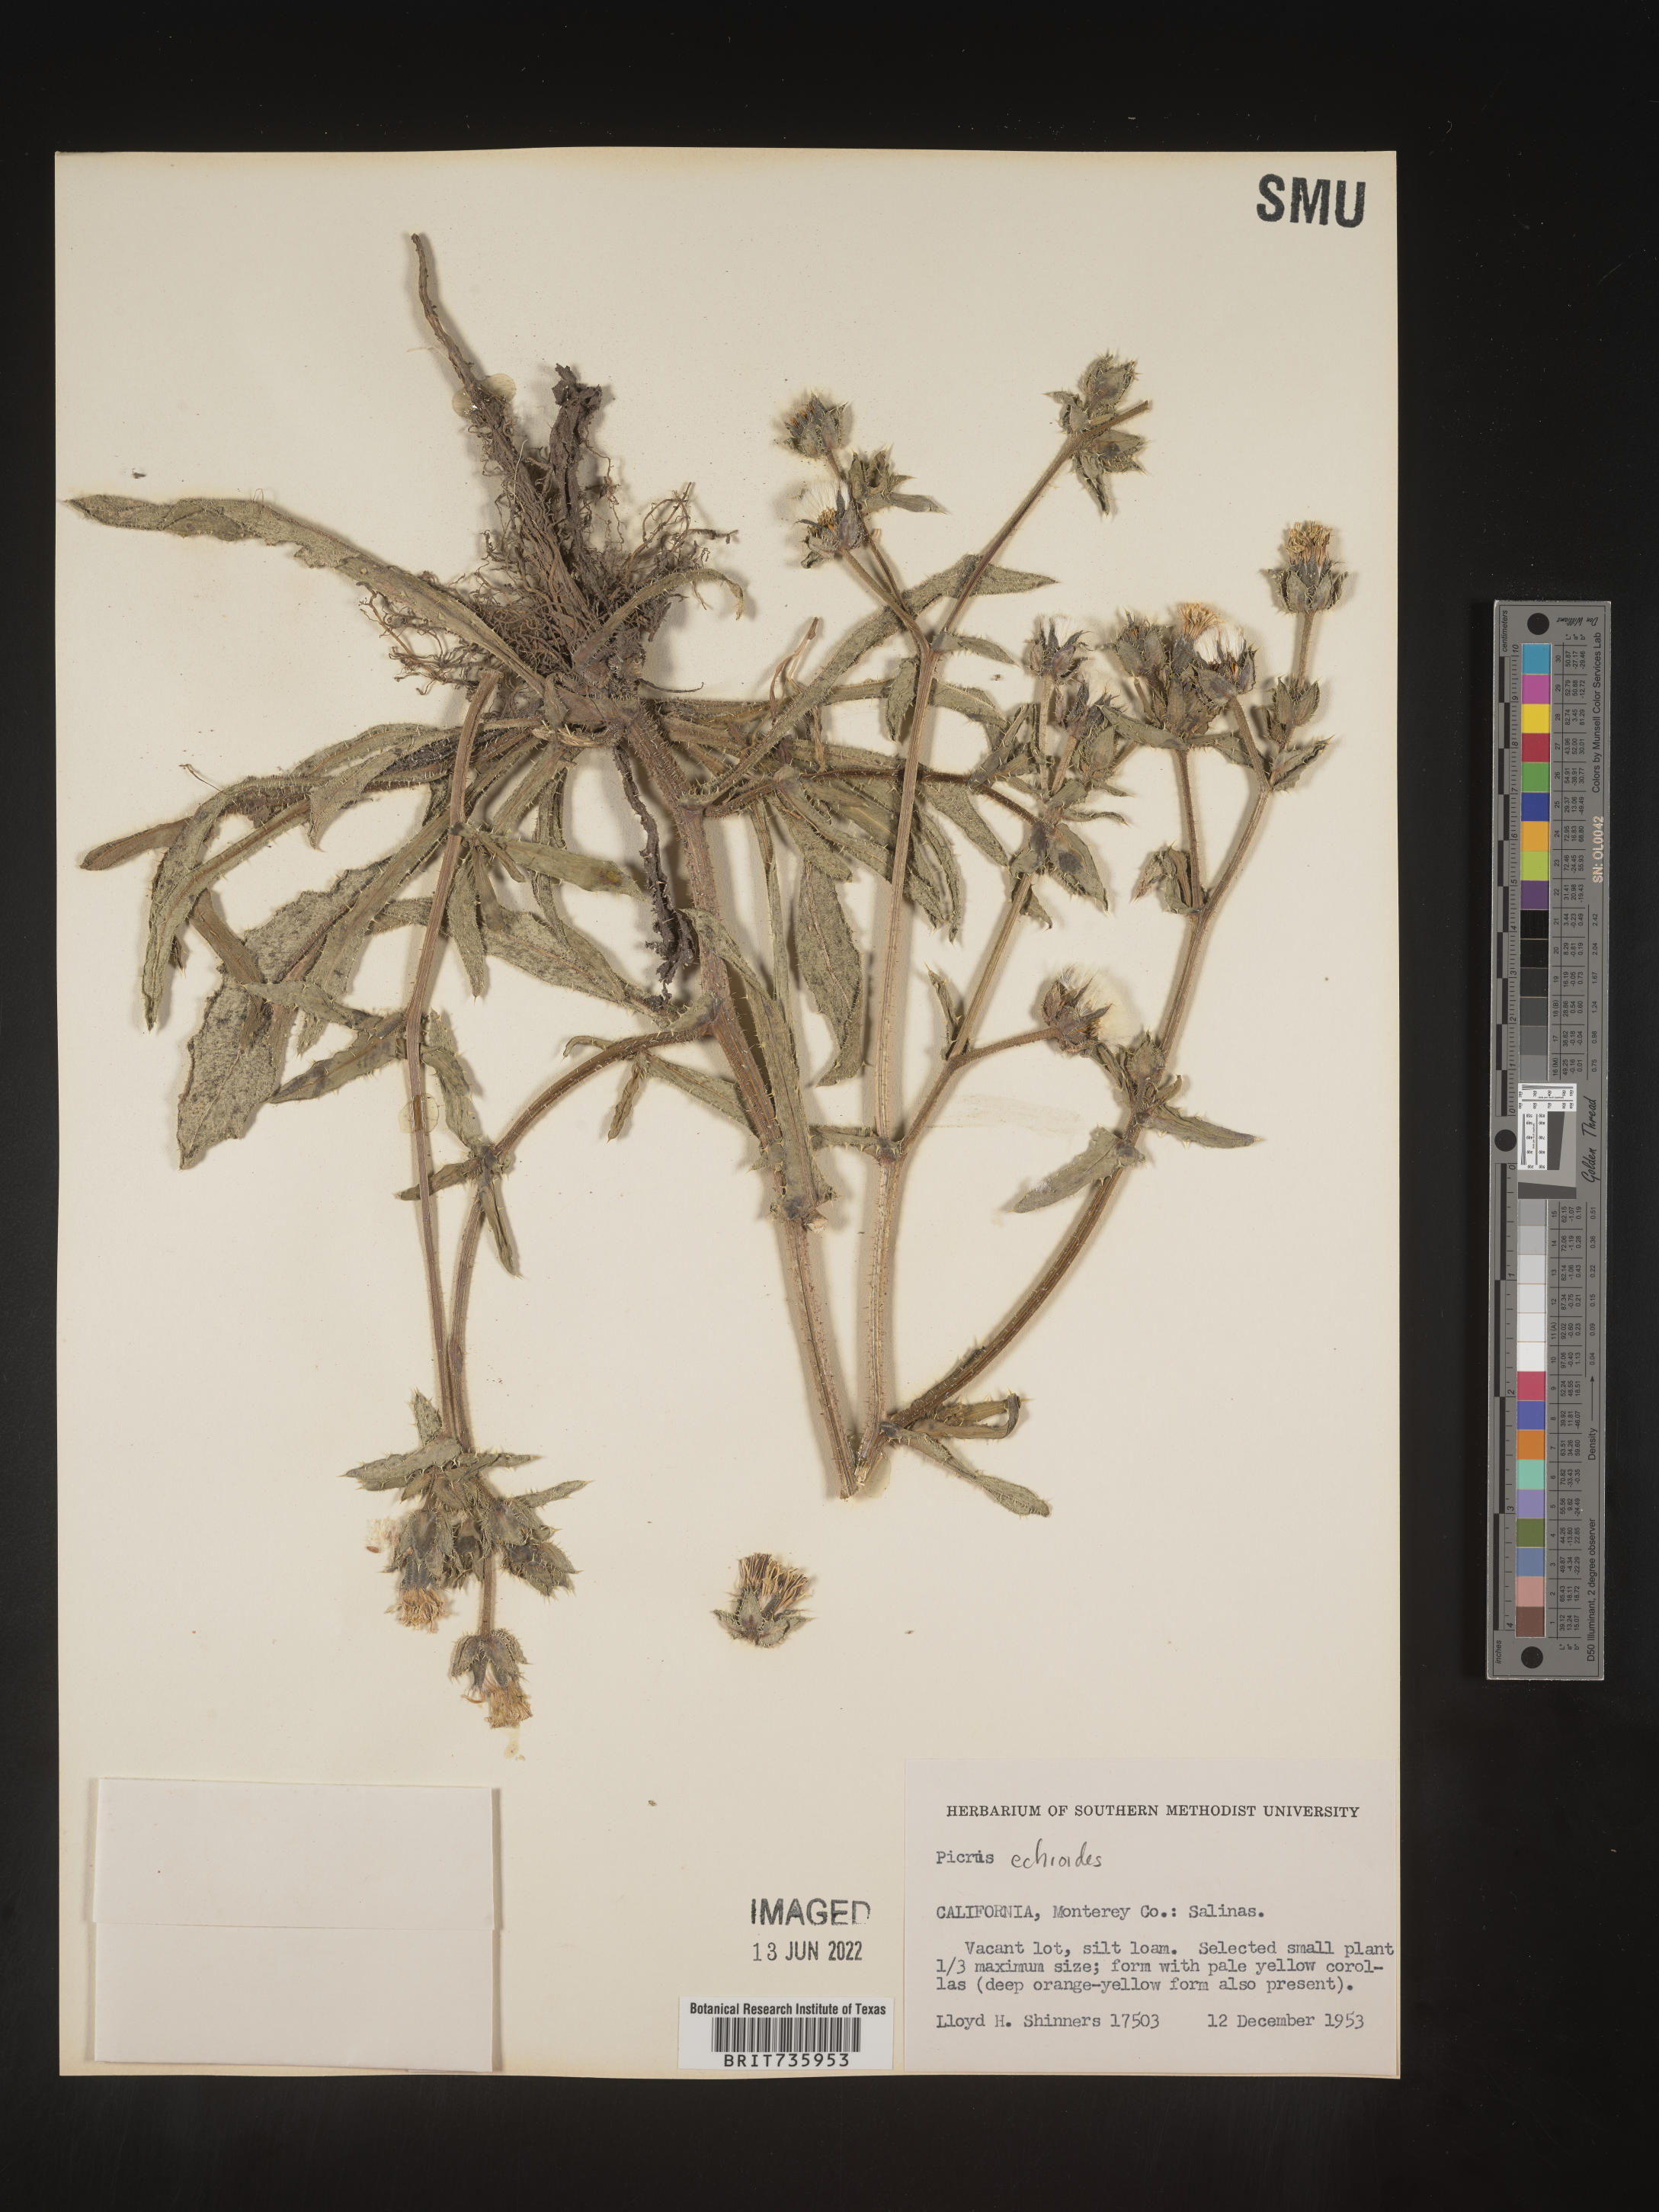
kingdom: Plantae
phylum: Tracheophyta
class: Magnoliopsida
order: Asterales
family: Asteraceae
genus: Picris
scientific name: Picris
